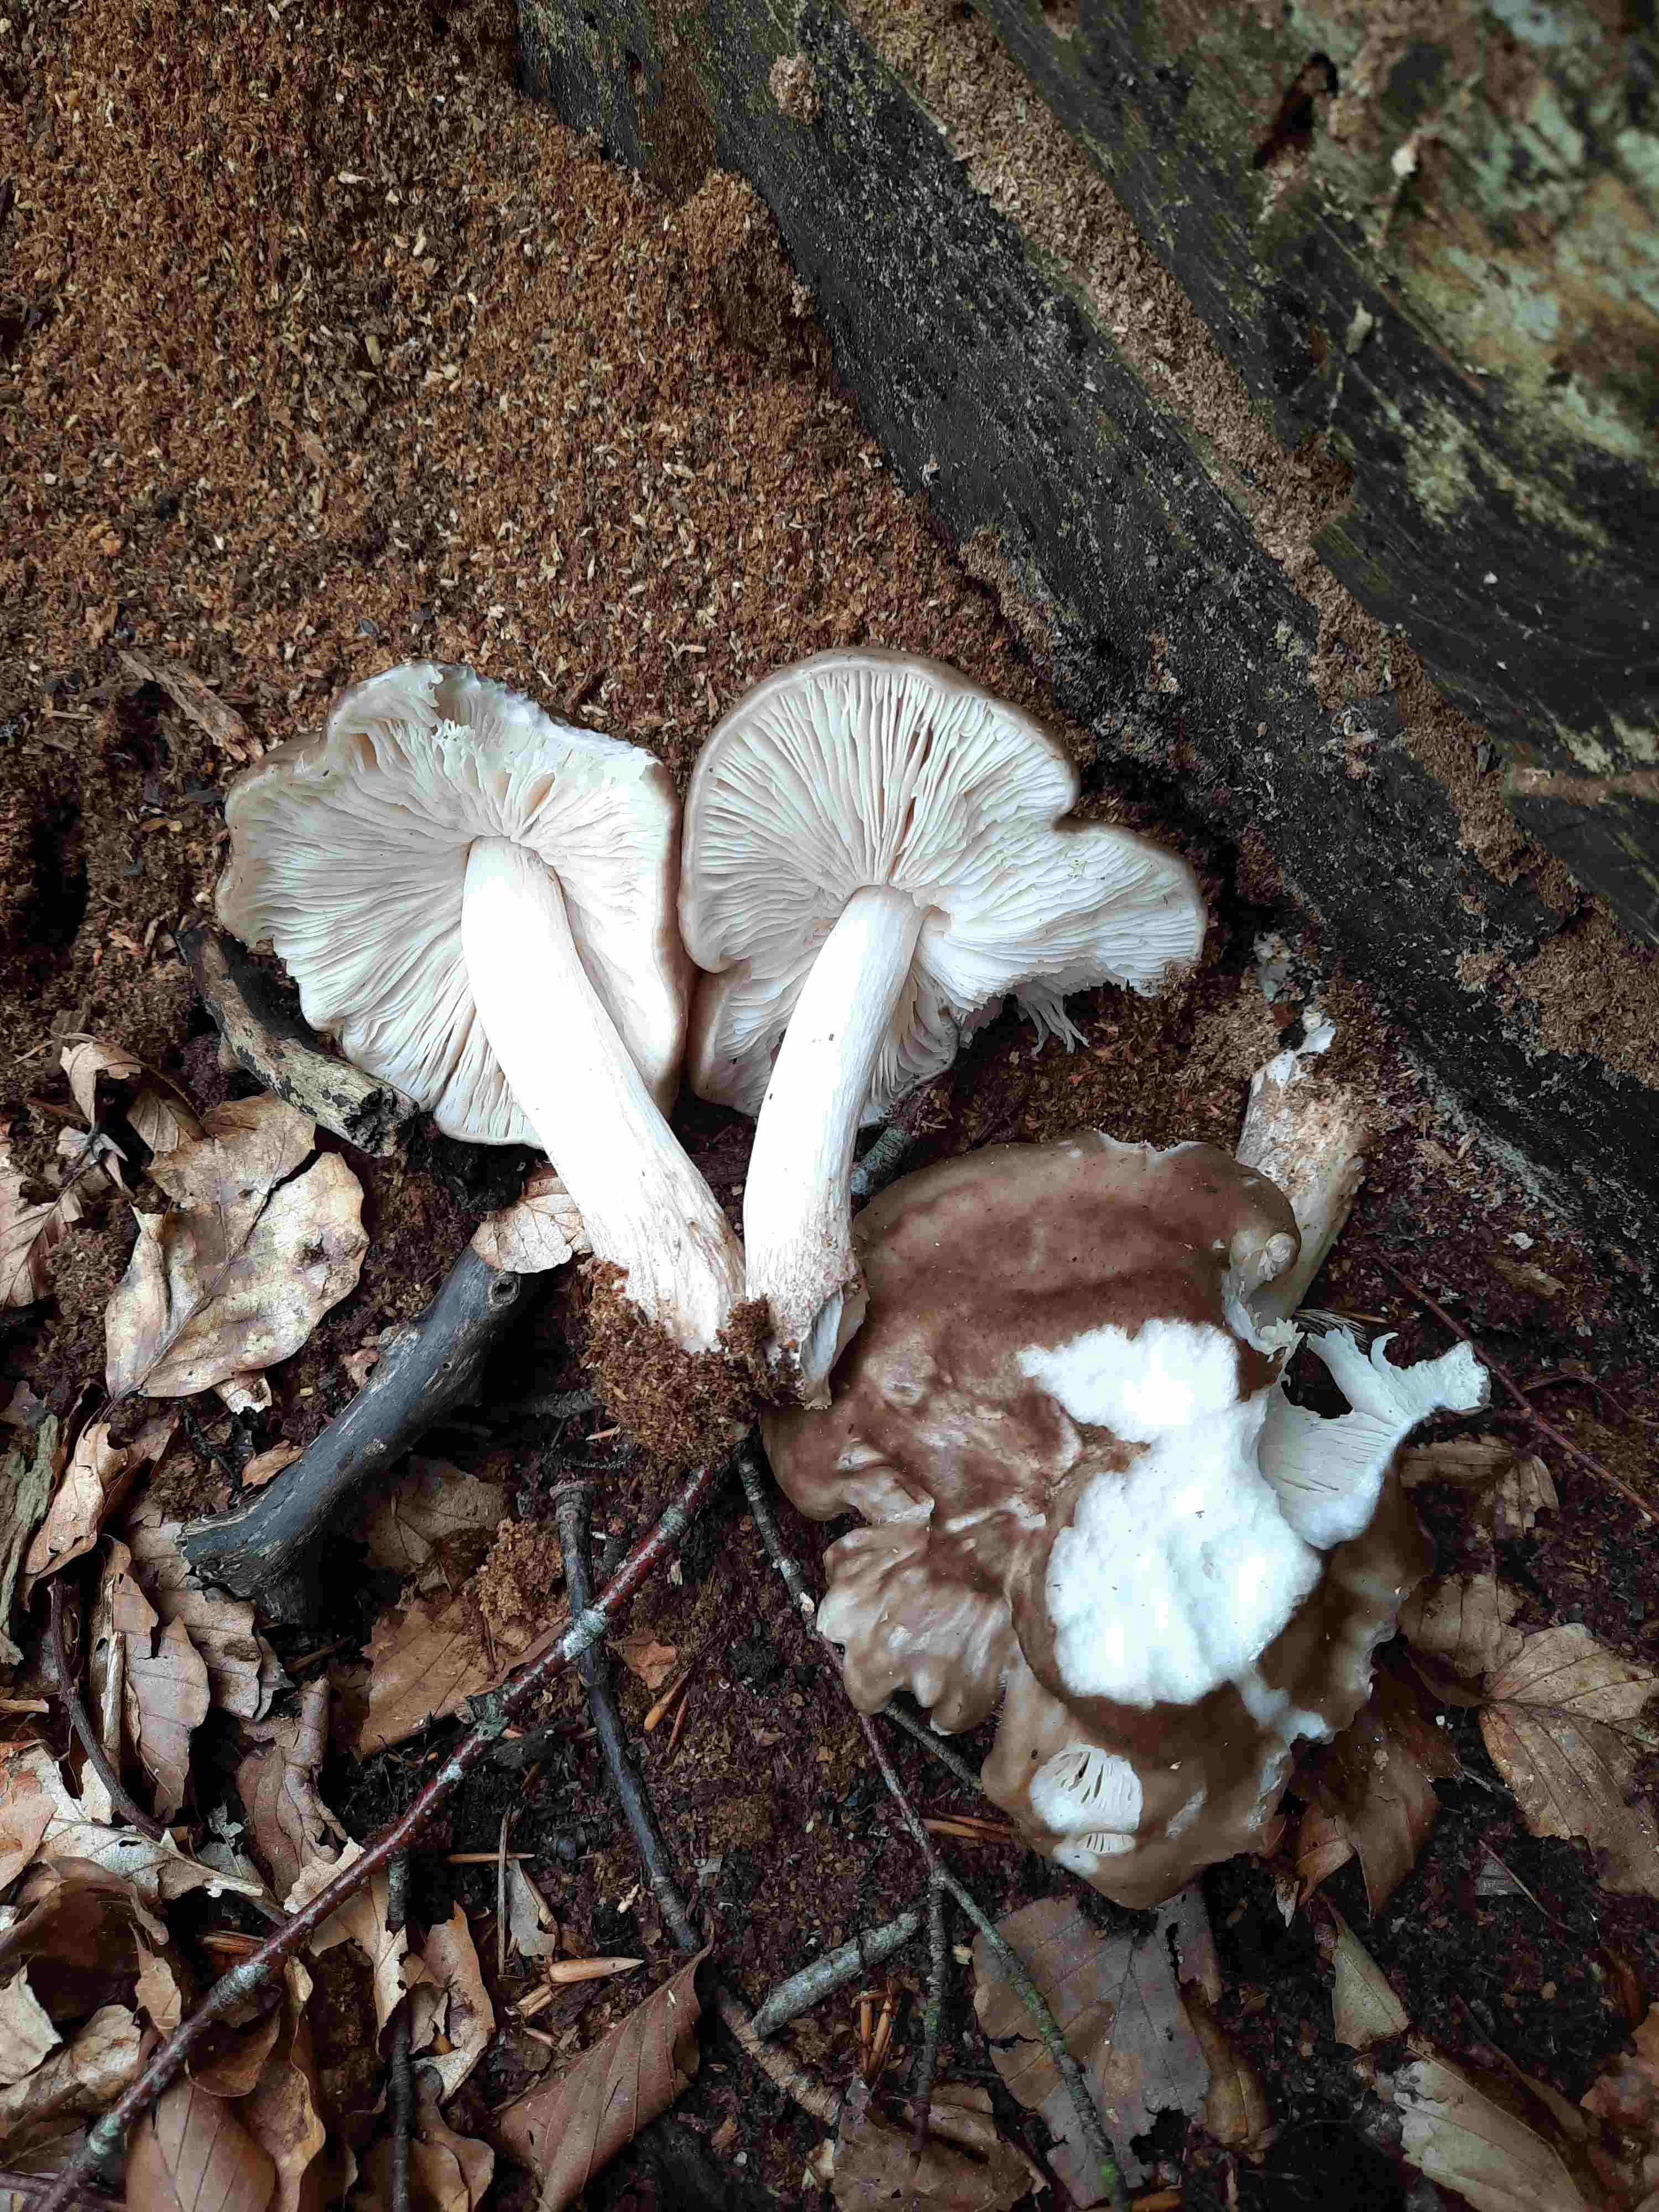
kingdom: Fungi
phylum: Basidiomycota
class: Agaricomycetes
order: Agaricales
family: Pluteaceae
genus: Pluteus
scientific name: Pluteus cervinus
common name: sodfarvet skærmhat
